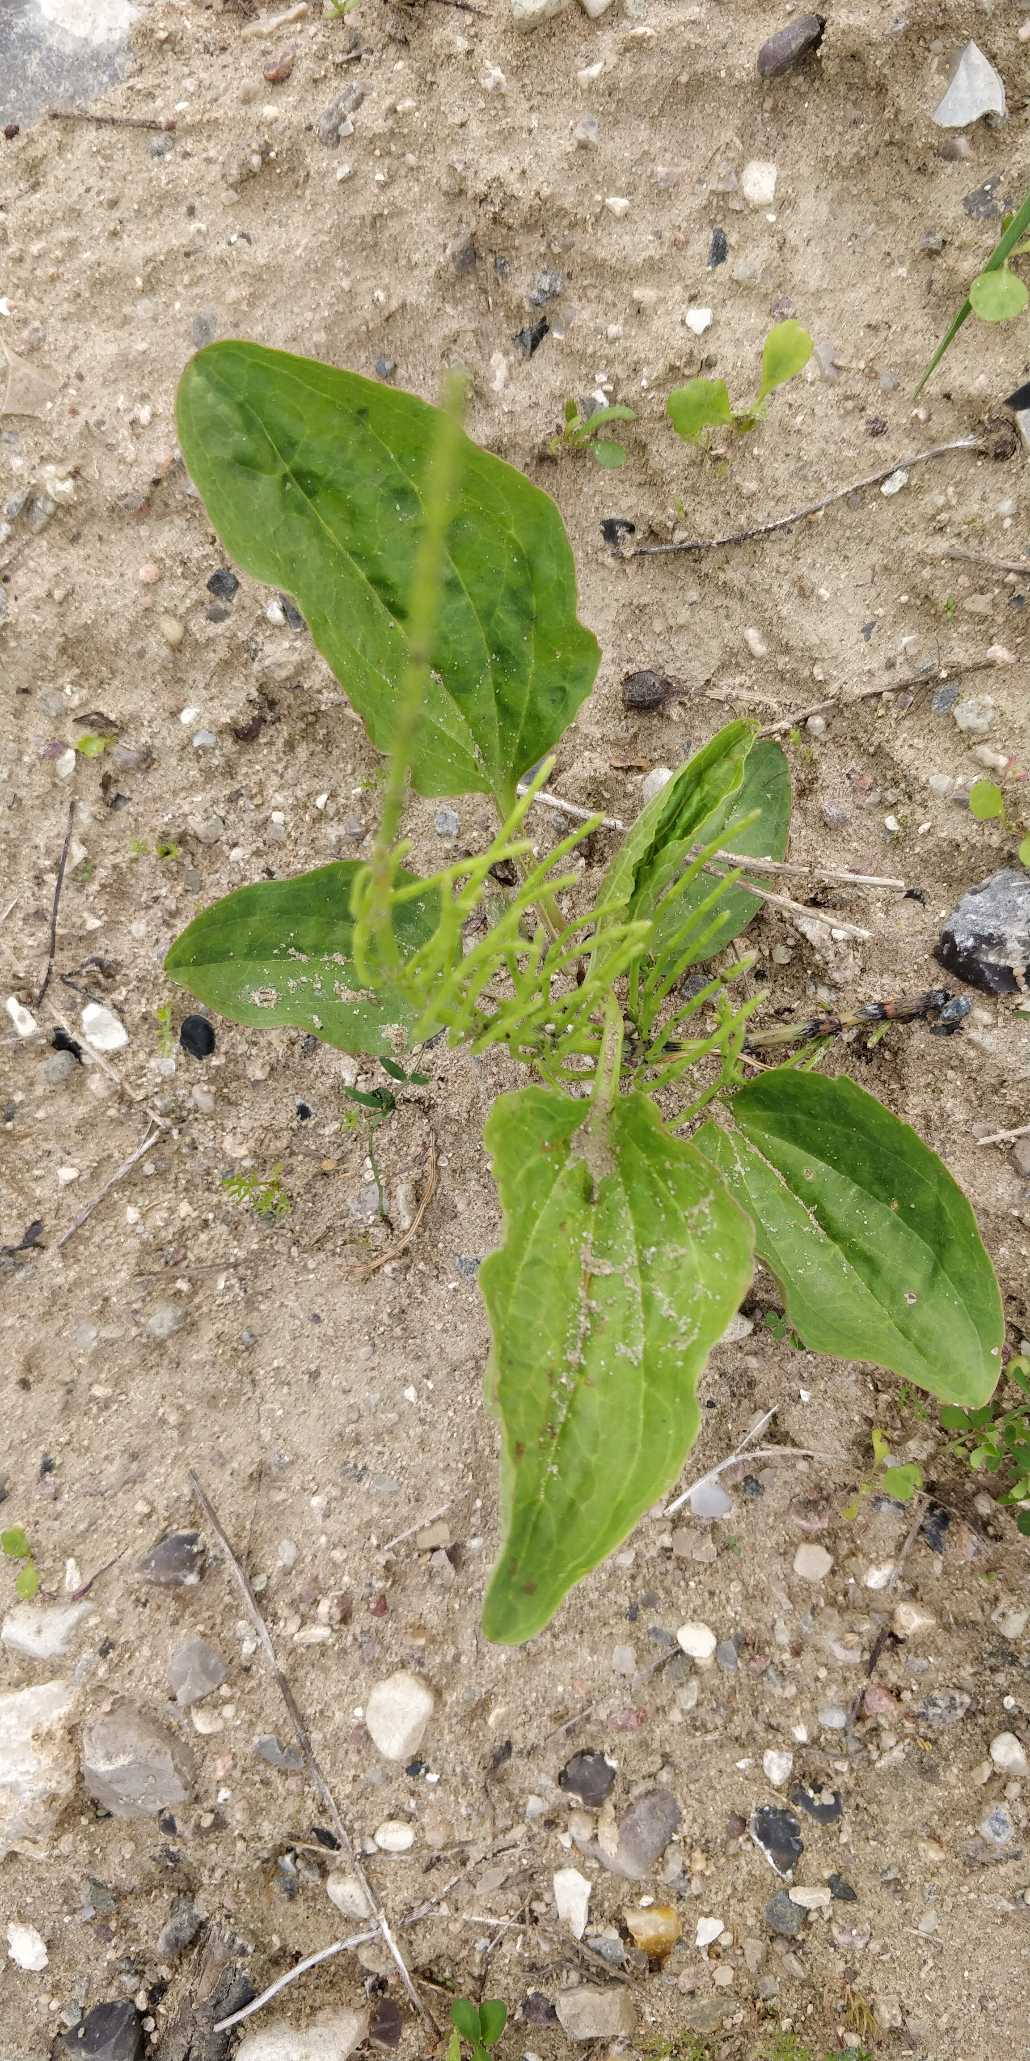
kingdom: Plantae
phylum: Tracheophyta
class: Magnoliopsida
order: Lamiales
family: Plantaginaceae
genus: Plantago
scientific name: Plantago major
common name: Glat vejbred
